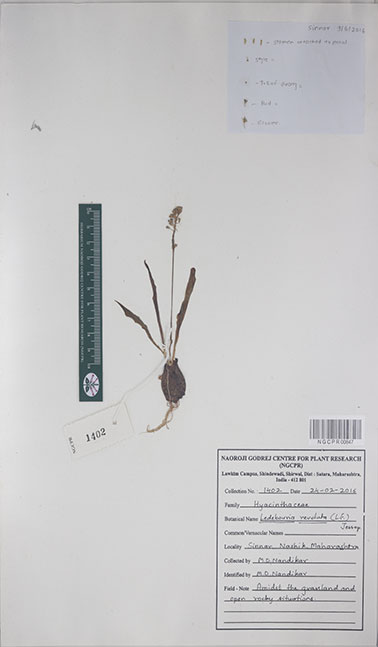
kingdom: Plantae
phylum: Tracheophyta
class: Liliopsida
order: Asparagales
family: Asparagaceae
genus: Ledebouria
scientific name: Ledebouria revoluta
